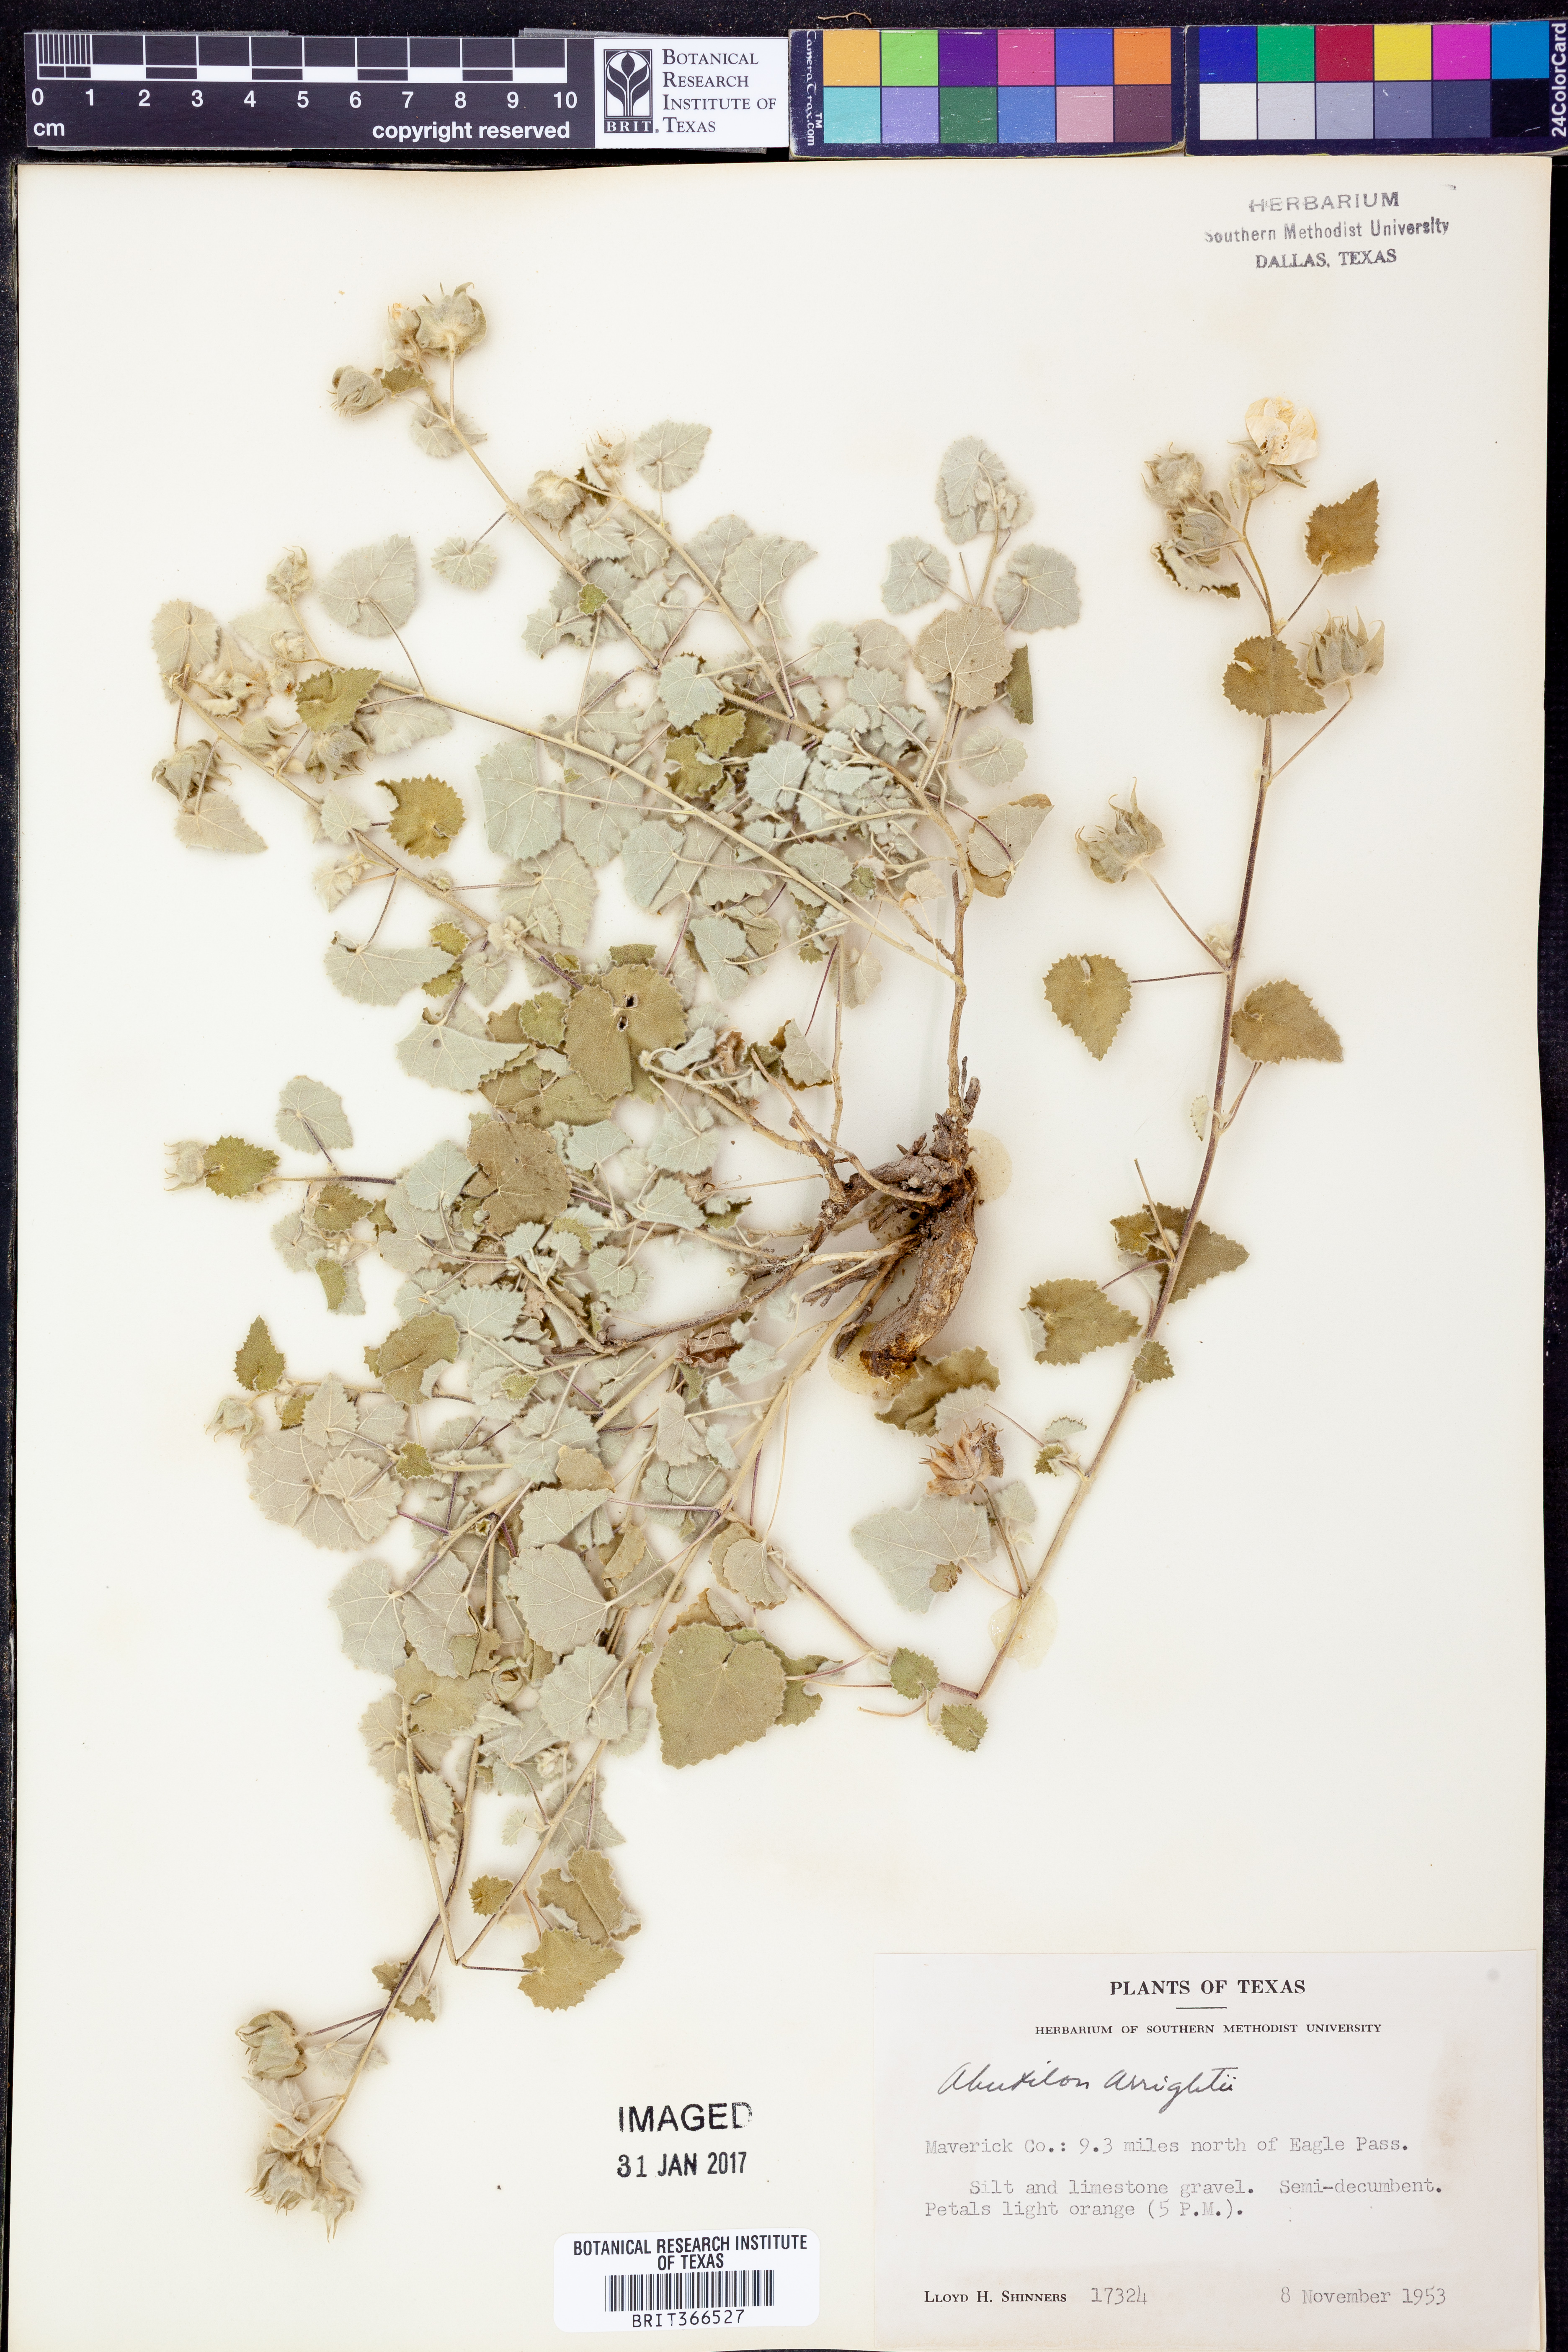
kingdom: Plantae
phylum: Tracheophyta
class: Magnoliopsida
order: Malvales
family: Malvaceae
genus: Abutilon
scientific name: Abutilon wrightii
